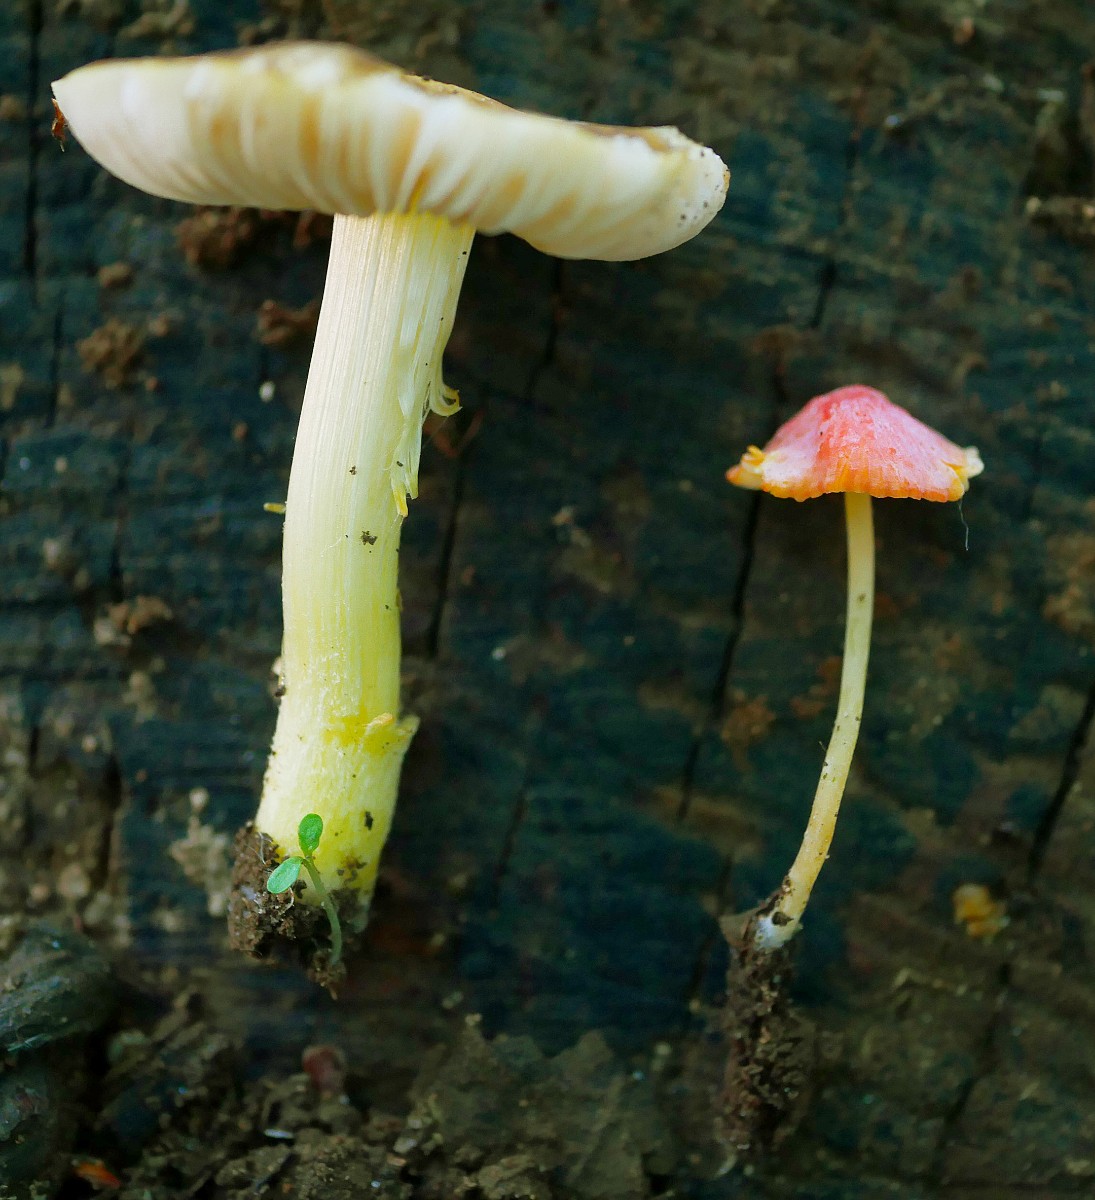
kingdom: Fungi
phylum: Basidiomycota
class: Agaricomycetes
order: Agaricales
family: Mycenaceae
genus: Mycena
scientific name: Mycena acicula
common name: orange huesvamp
